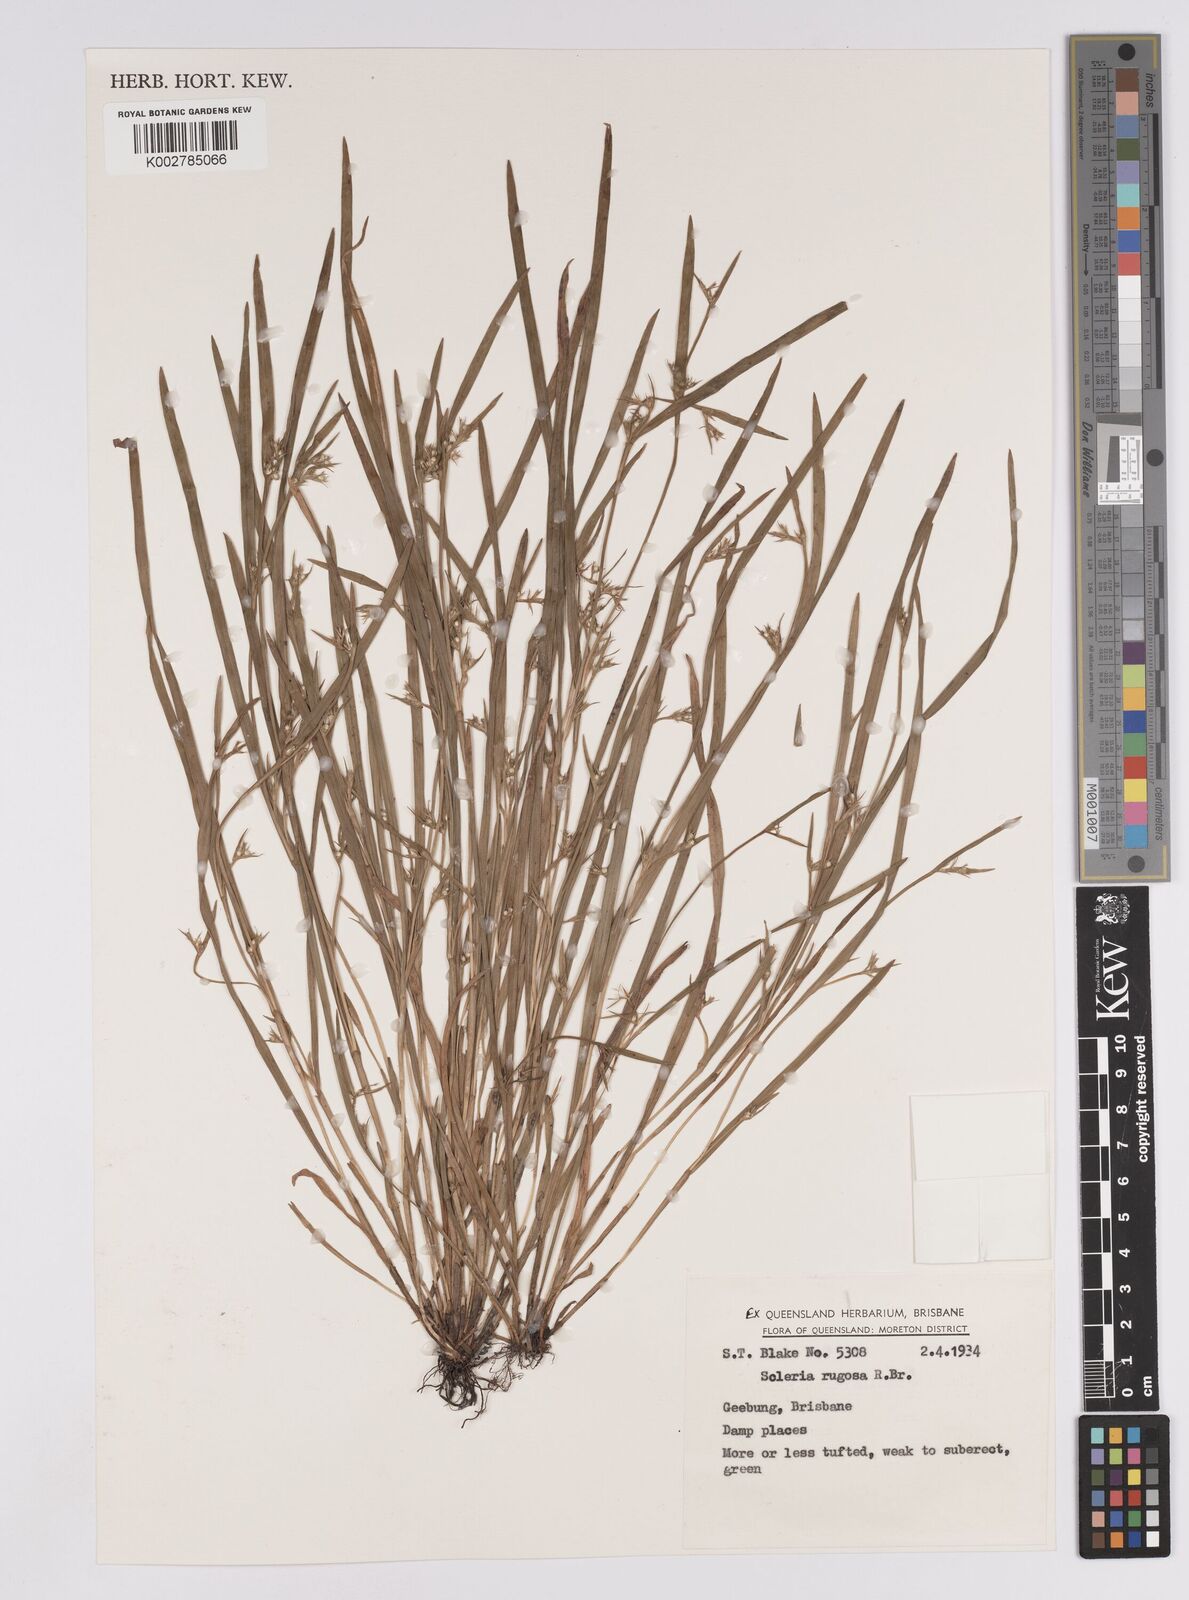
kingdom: Plantae
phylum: Tracheophyta
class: Liliopsida
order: Poales
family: Cyperaceae
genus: Scleria
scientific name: Scleria rugosa
